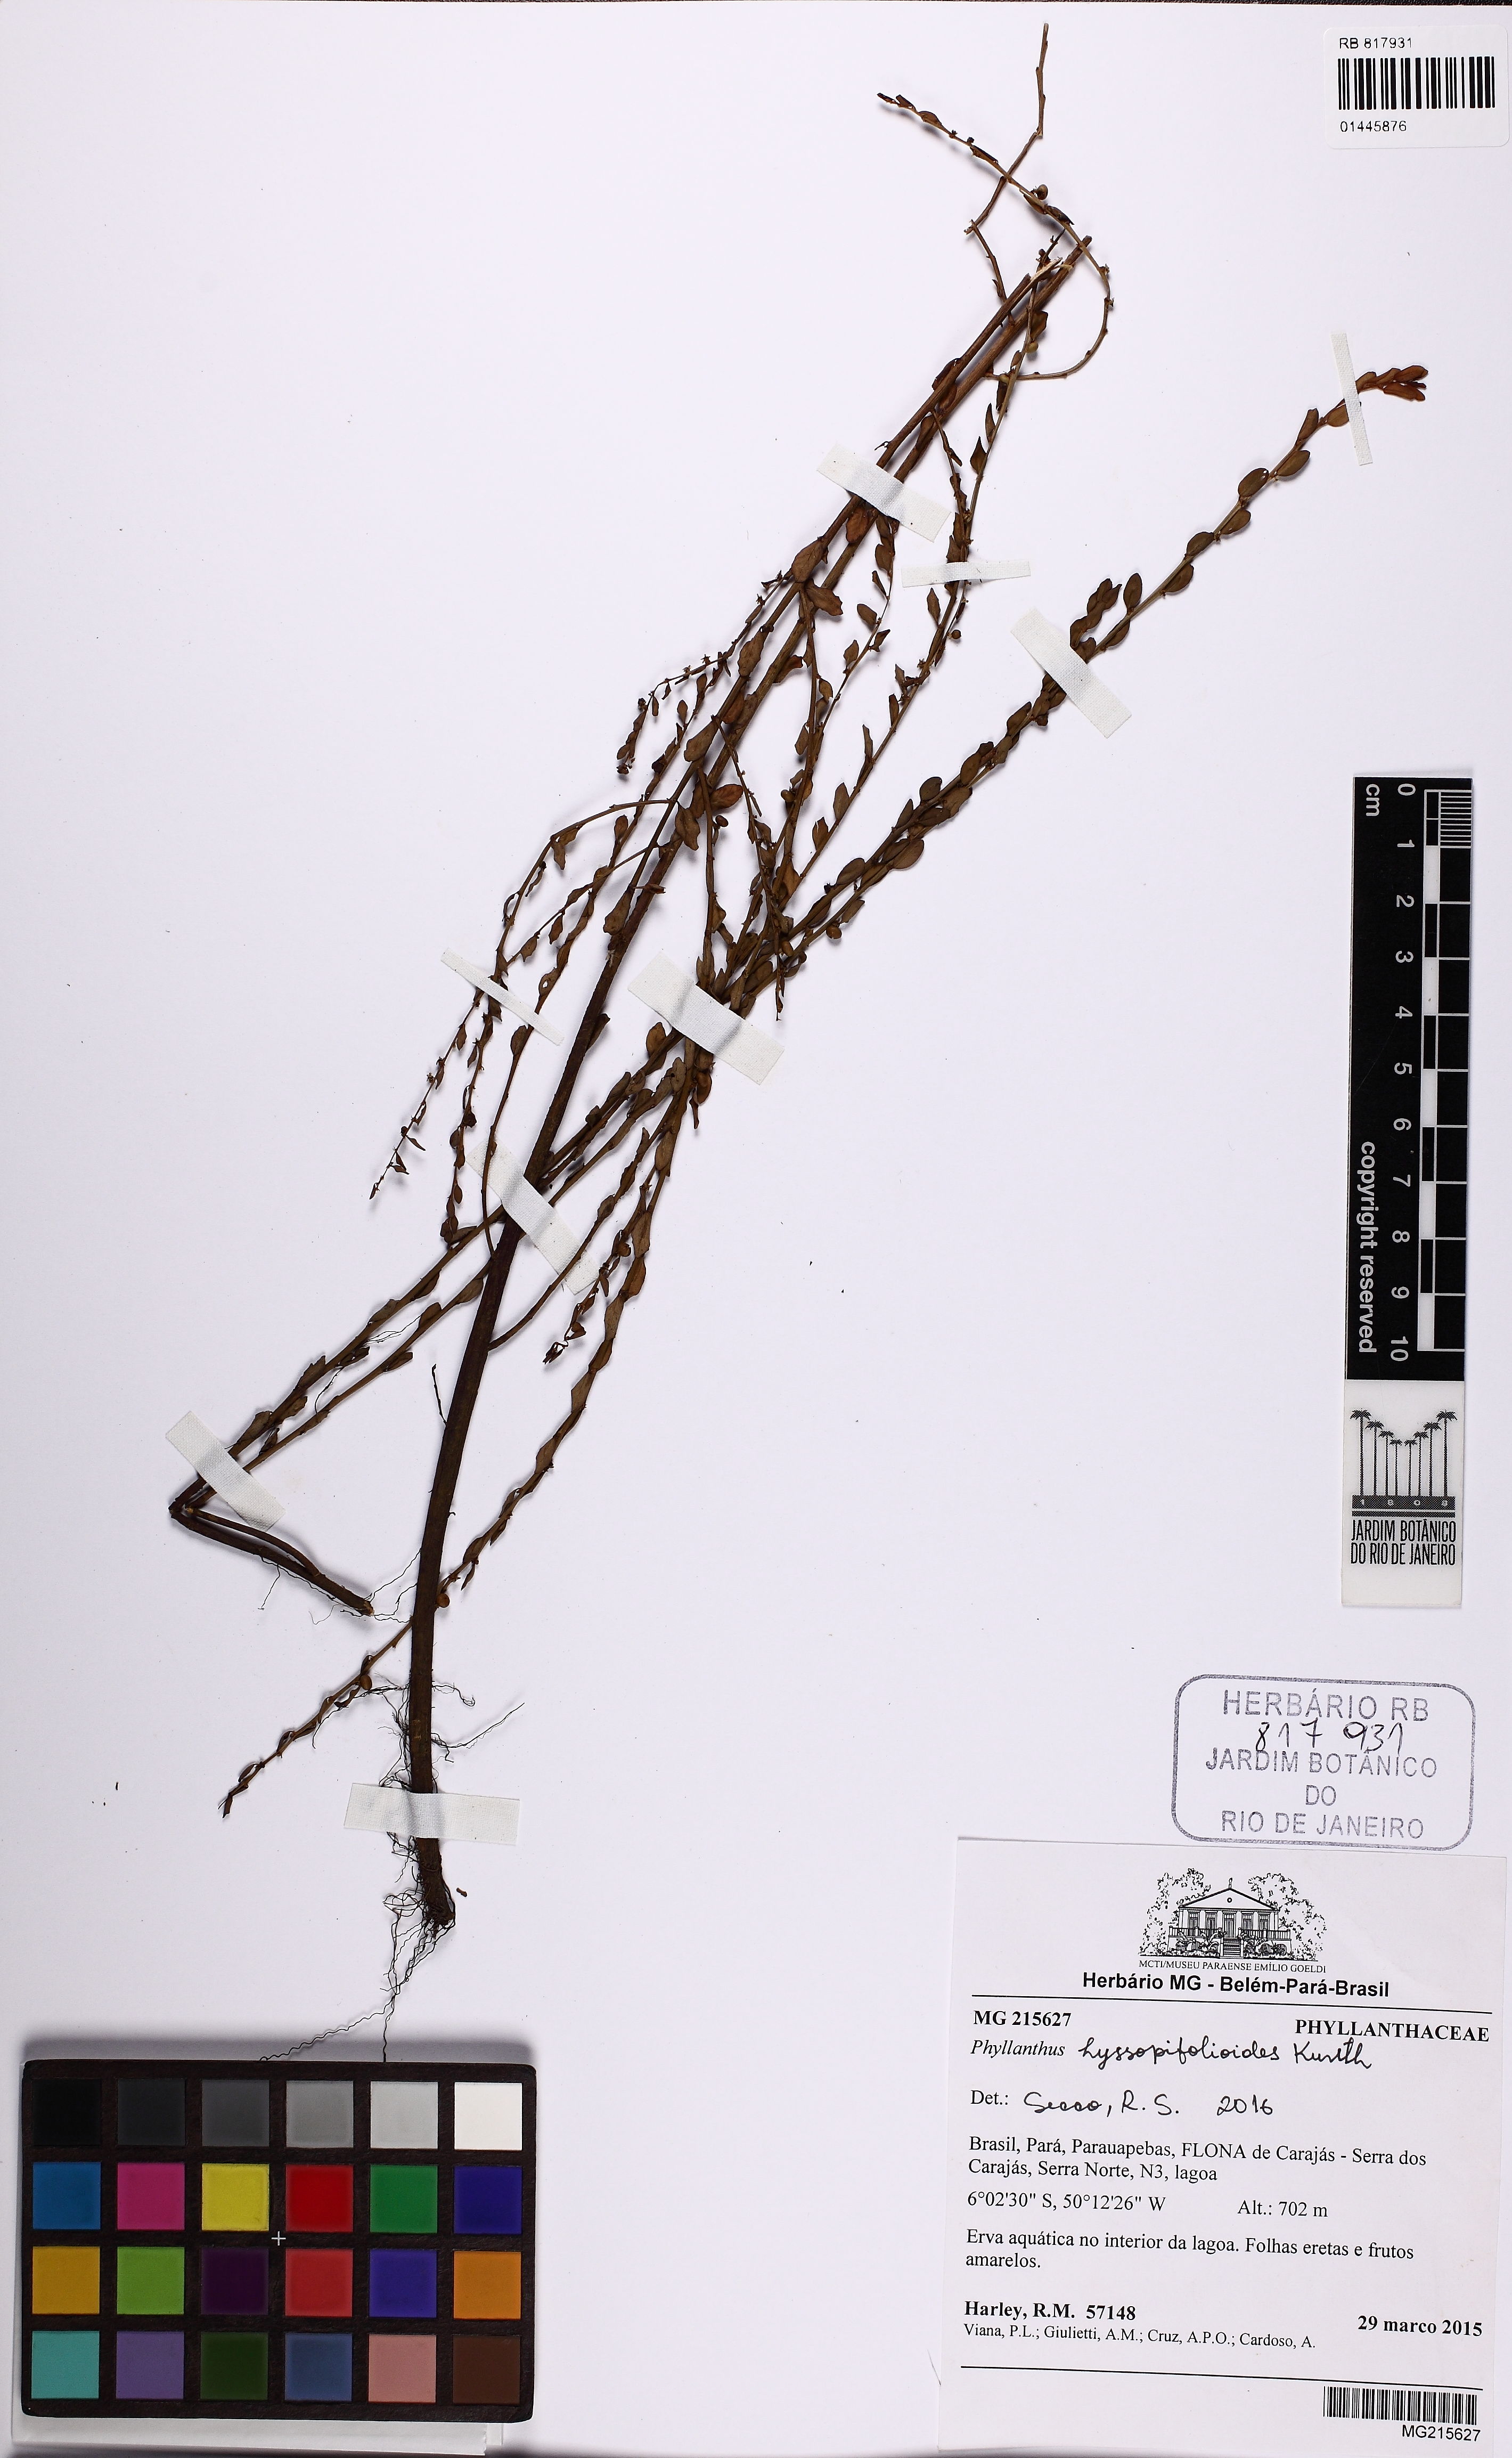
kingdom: Plantae
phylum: Tracheophyta
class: Magnoliopsida
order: Malpighiales
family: Phyllanthaceae
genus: Phyllanthus
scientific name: Phyllanthus hyssopifolioides
